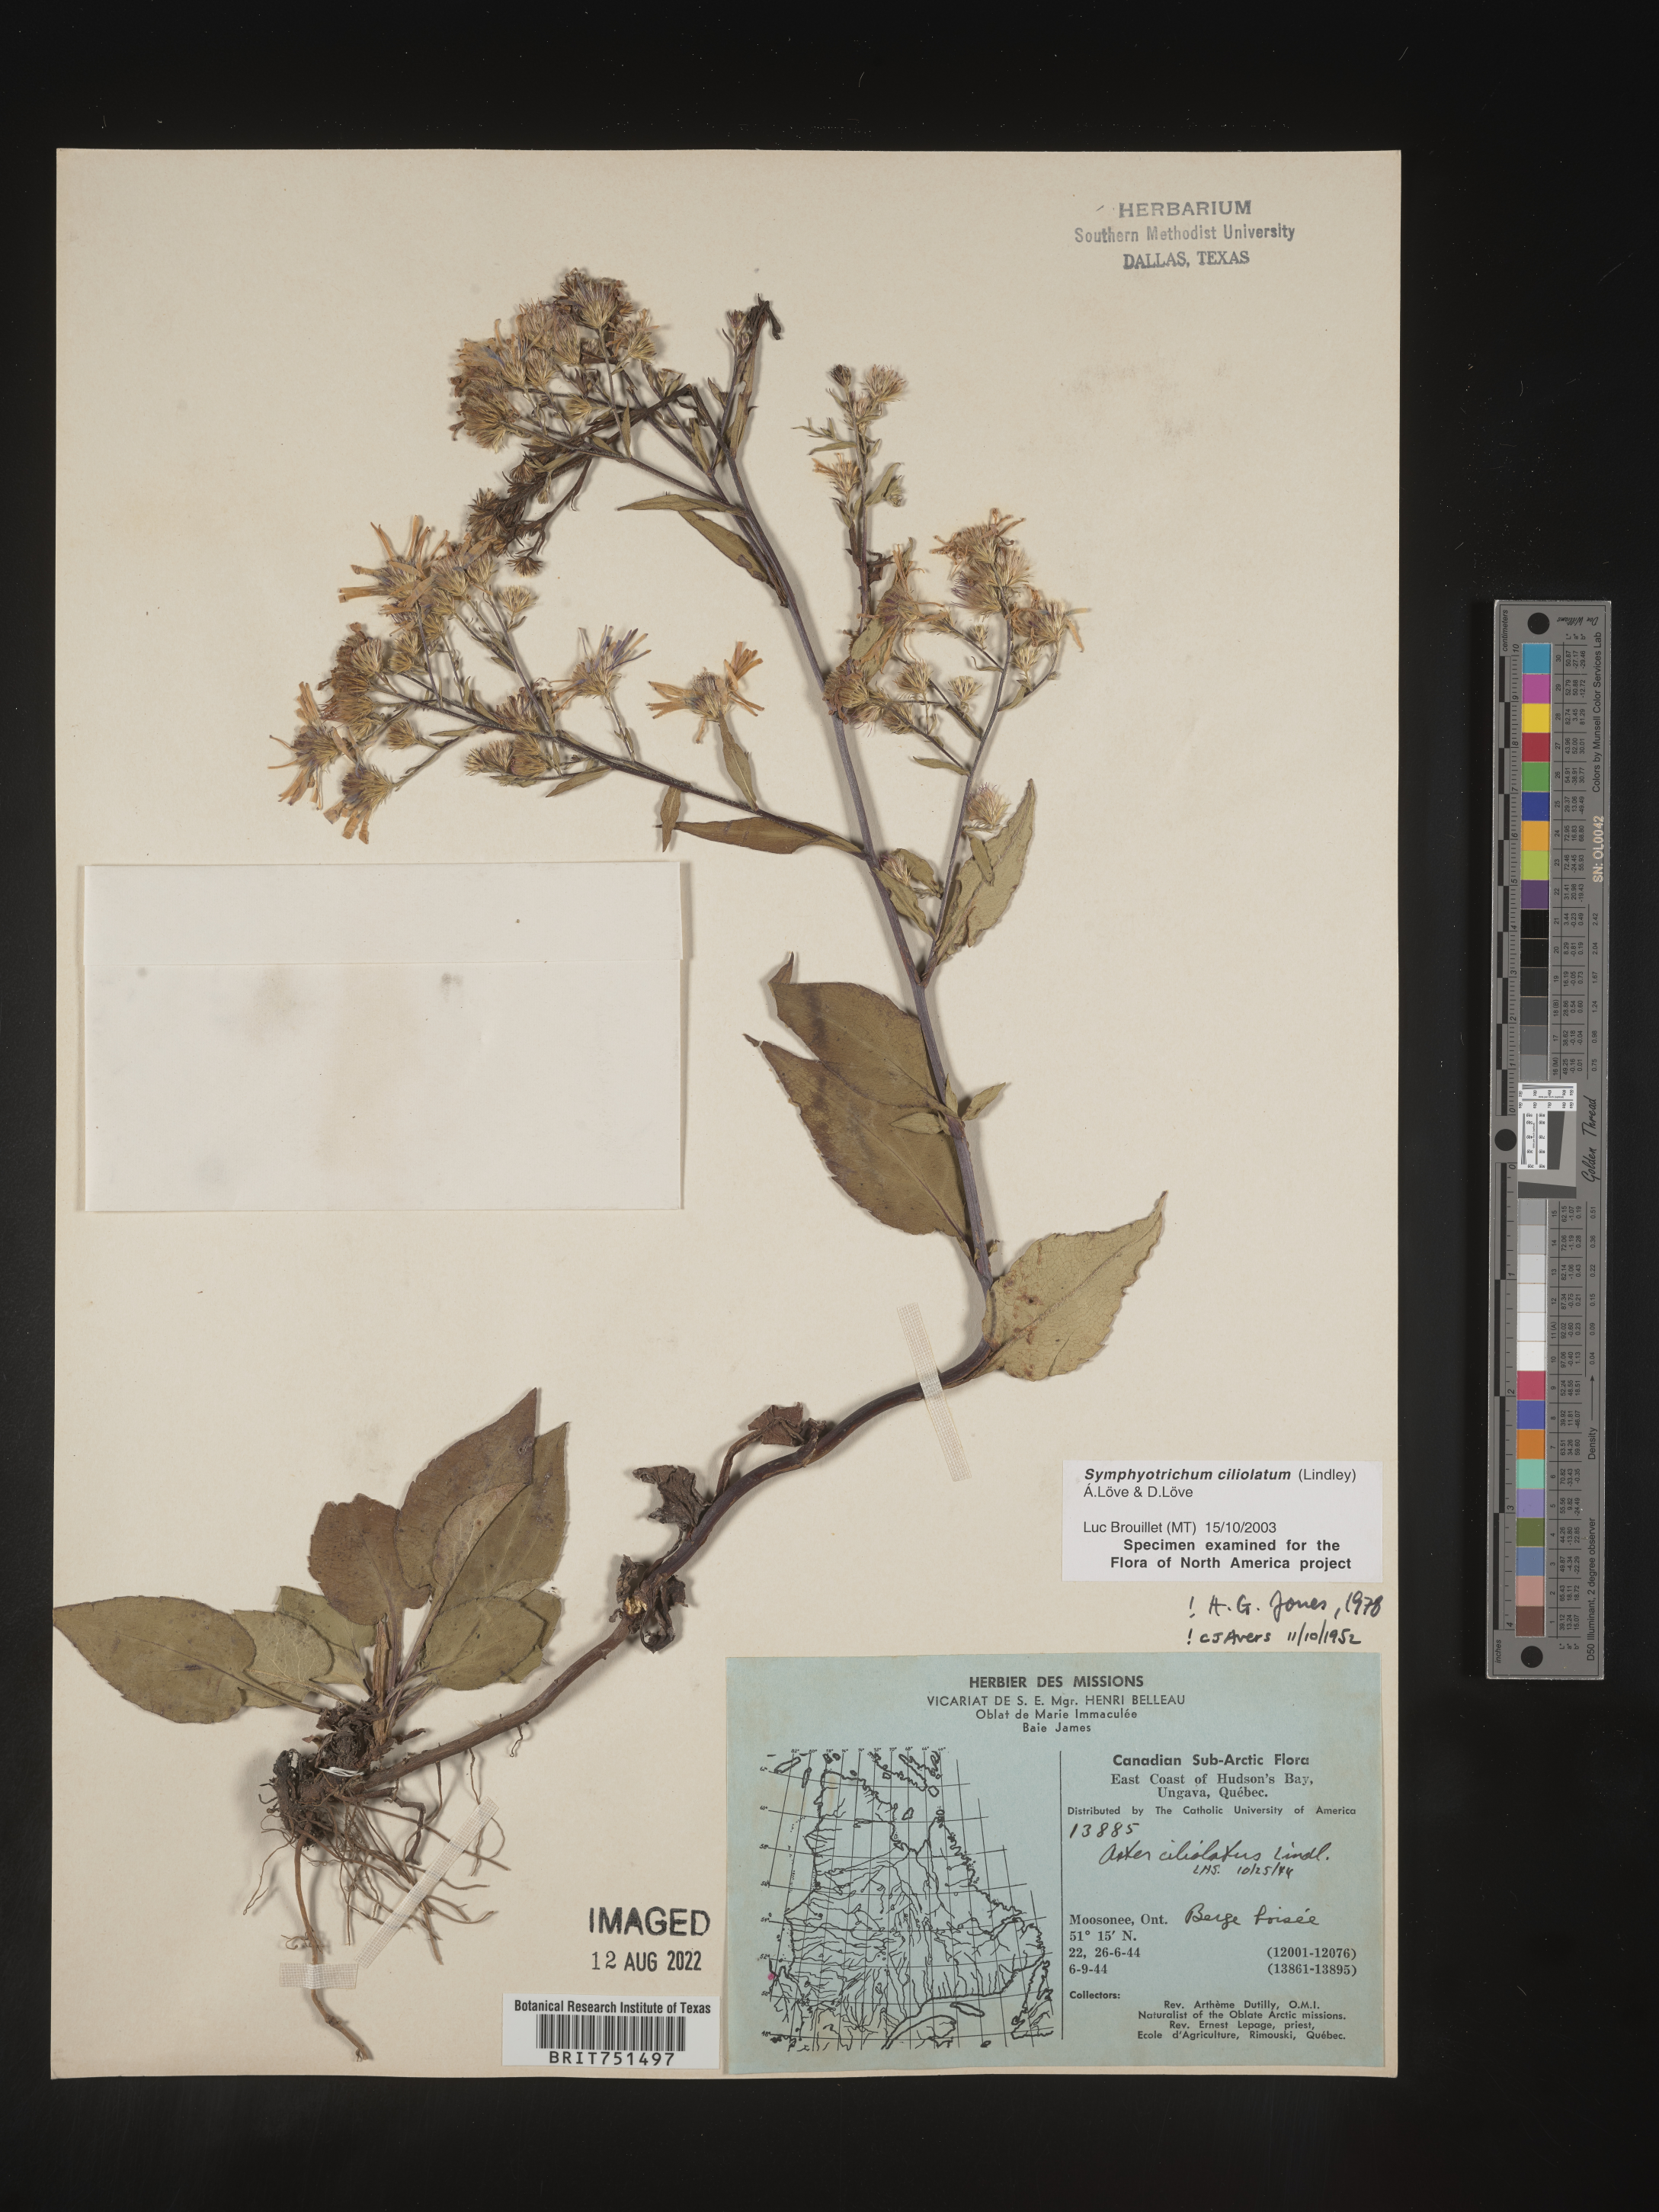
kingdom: Plantae
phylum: Tracheophyta
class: Magnoliopsida
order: Asterales
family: Asteraceae
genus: Symphyotrichum
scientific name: Symphyotrichum ciliolatum
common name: Fringed blue aster
